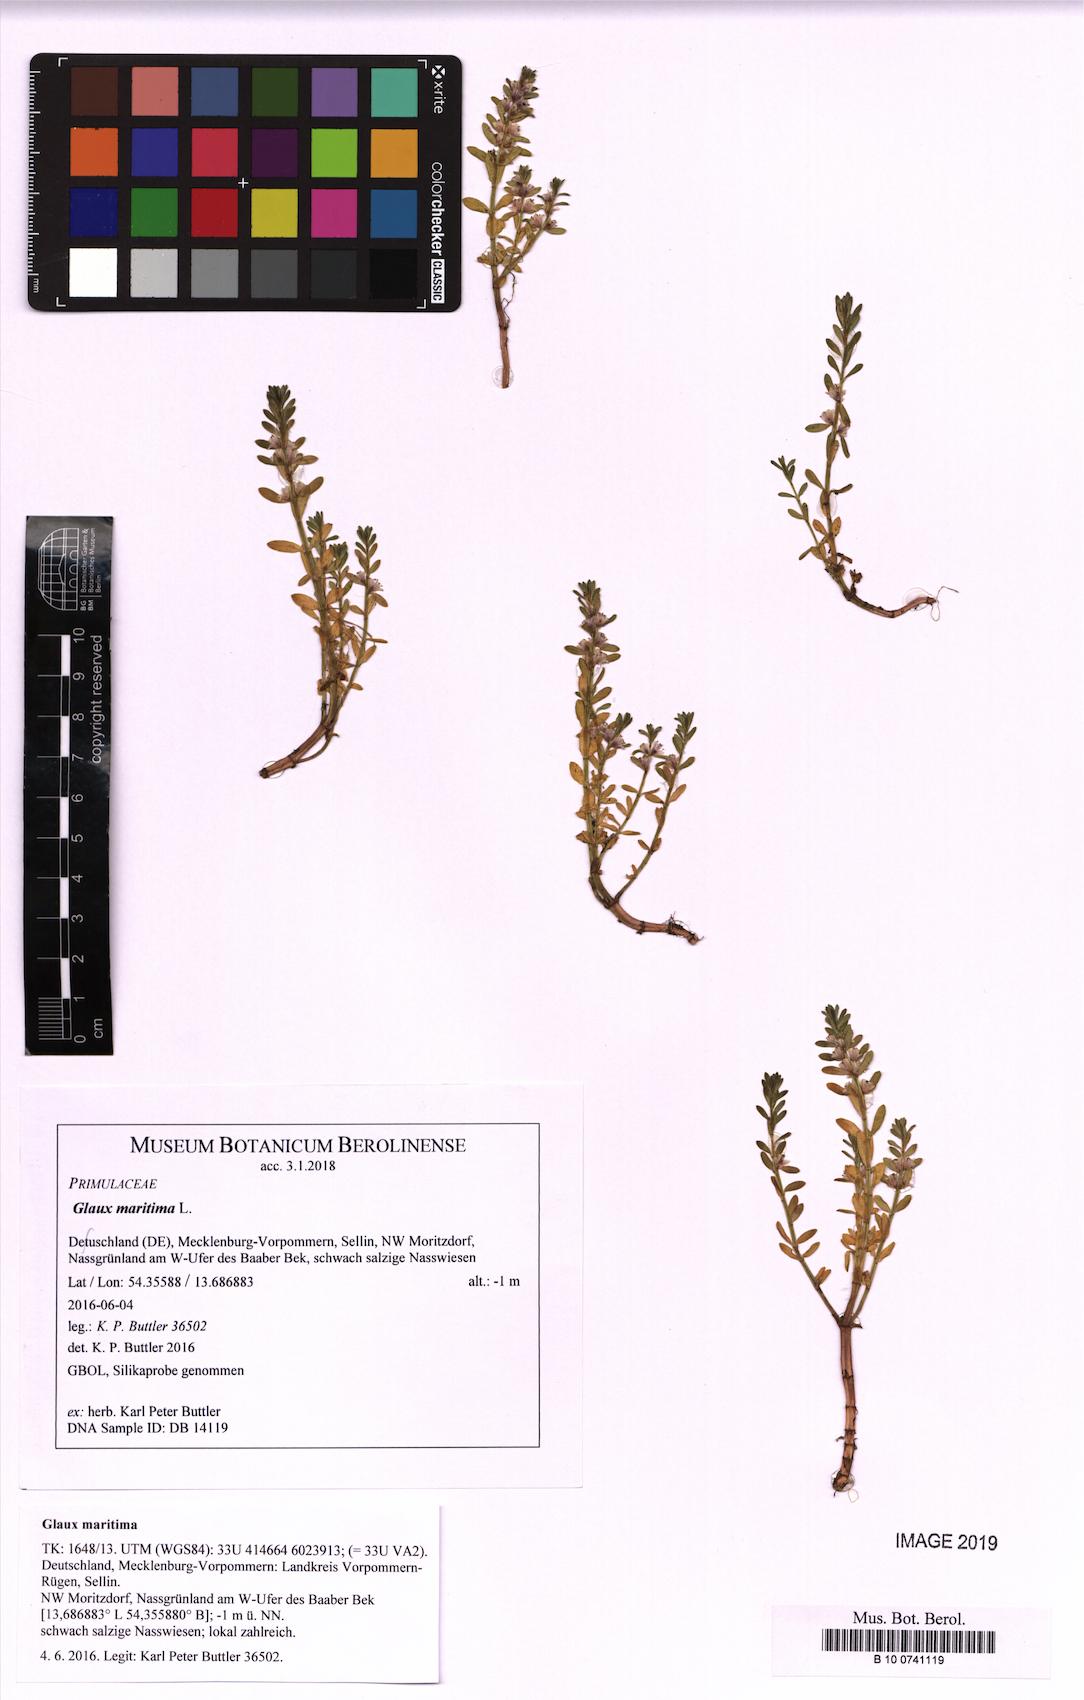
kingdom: Plantae
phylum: Tracheophyta
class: Magnoliopsida
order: Ericales
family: Primulaceae
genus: Lysimachia
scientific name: Lysimachia maritima
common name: Sea milkwort
